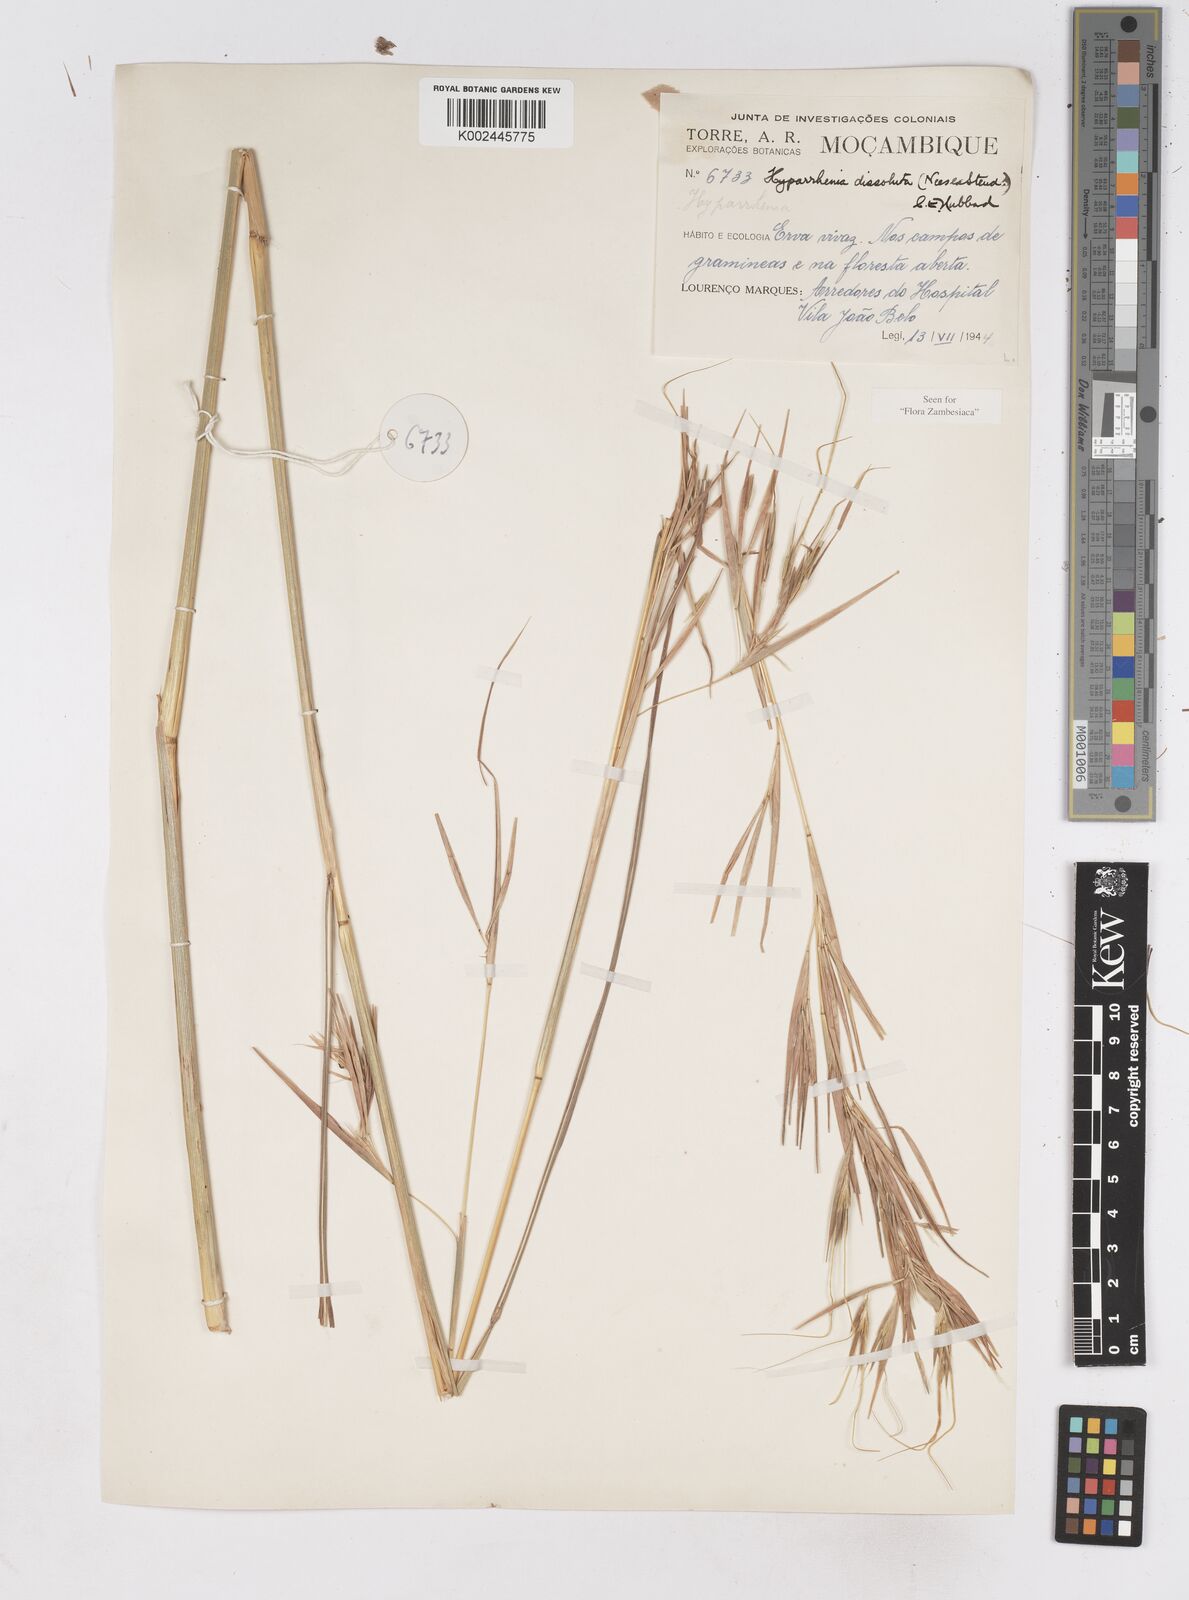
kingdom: Plantae
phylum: Tracheophyta
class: Liliopsida
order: Poales
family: Poaceae
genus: Hyperthelia
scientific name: Hyperthelia dissoluta
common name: Yellow thatching grass
